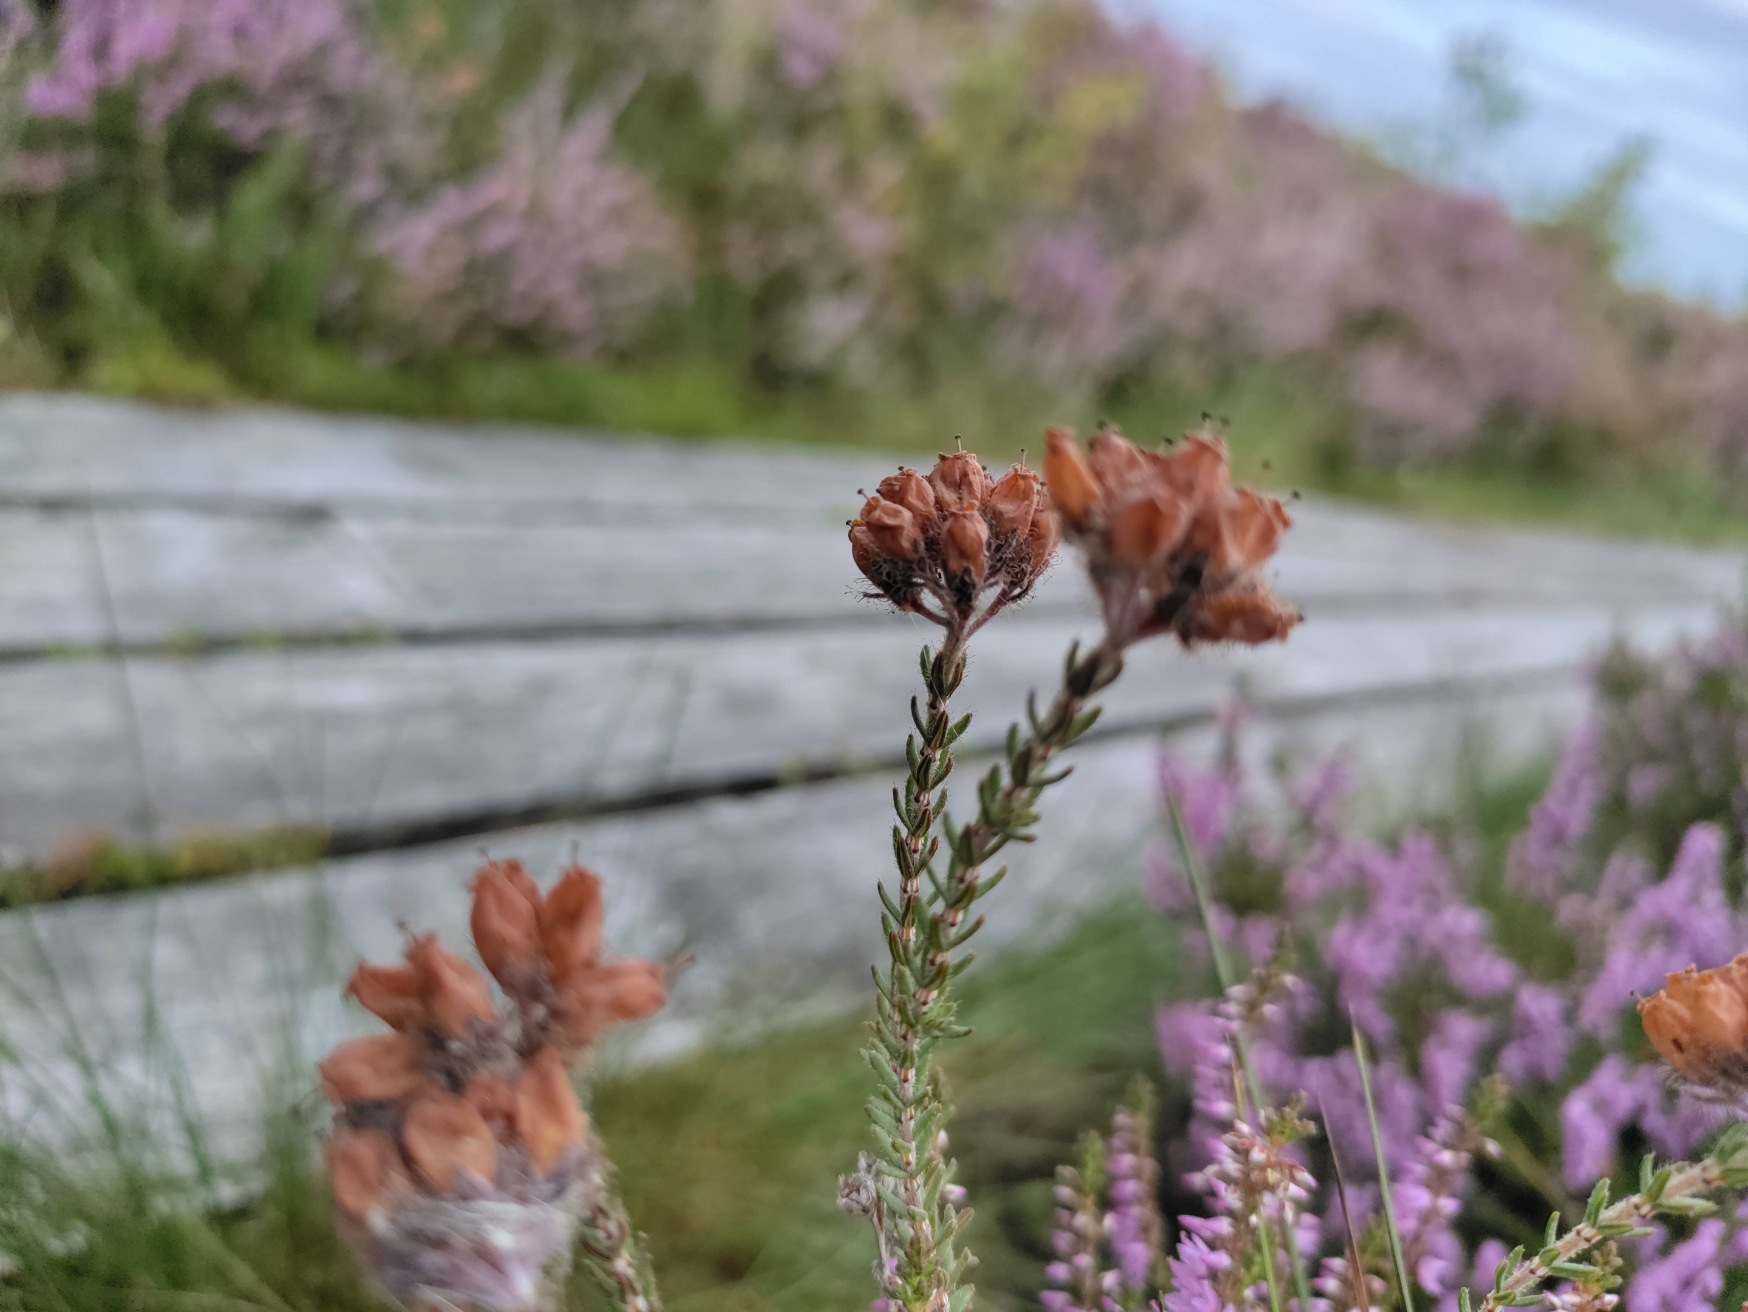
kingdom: Plantae
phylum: Tracheophyta
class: Magnoliopsida
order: Ericales
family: Ericaceae
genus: Erica
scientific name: Erica tetralix
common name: Klokkelyng
